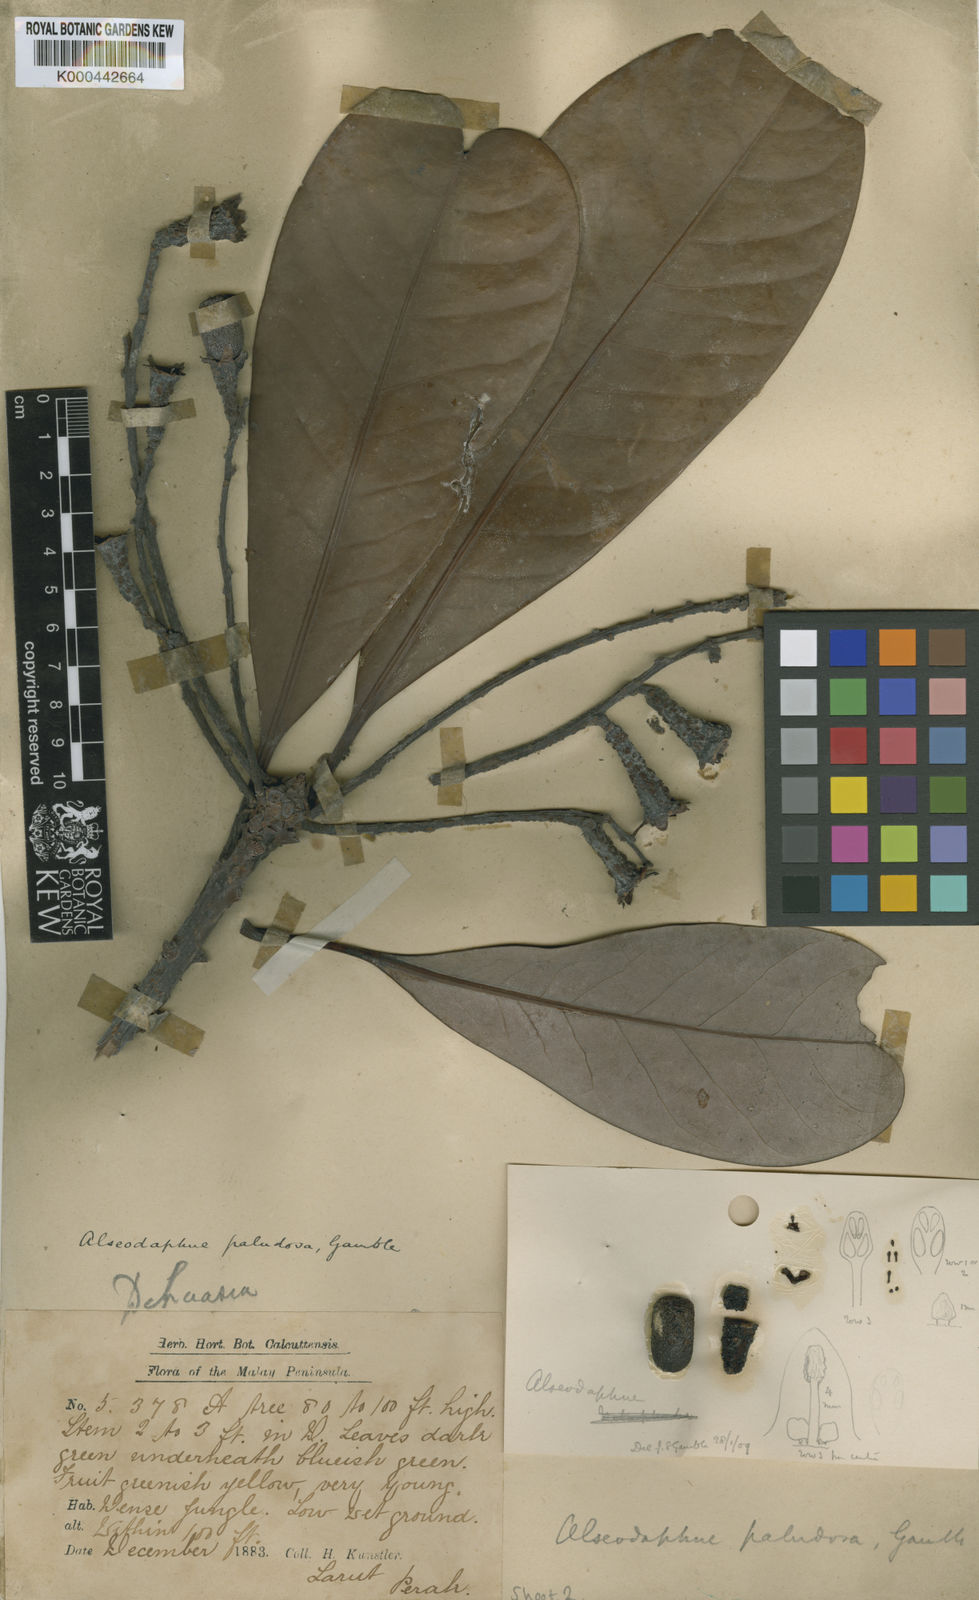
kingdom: Plantae
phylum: Tracheophyta
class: Magnoliopsida
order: Laurales
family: Lauraceae
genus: Alseodaphne
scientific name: Alseodaphne paludosa
